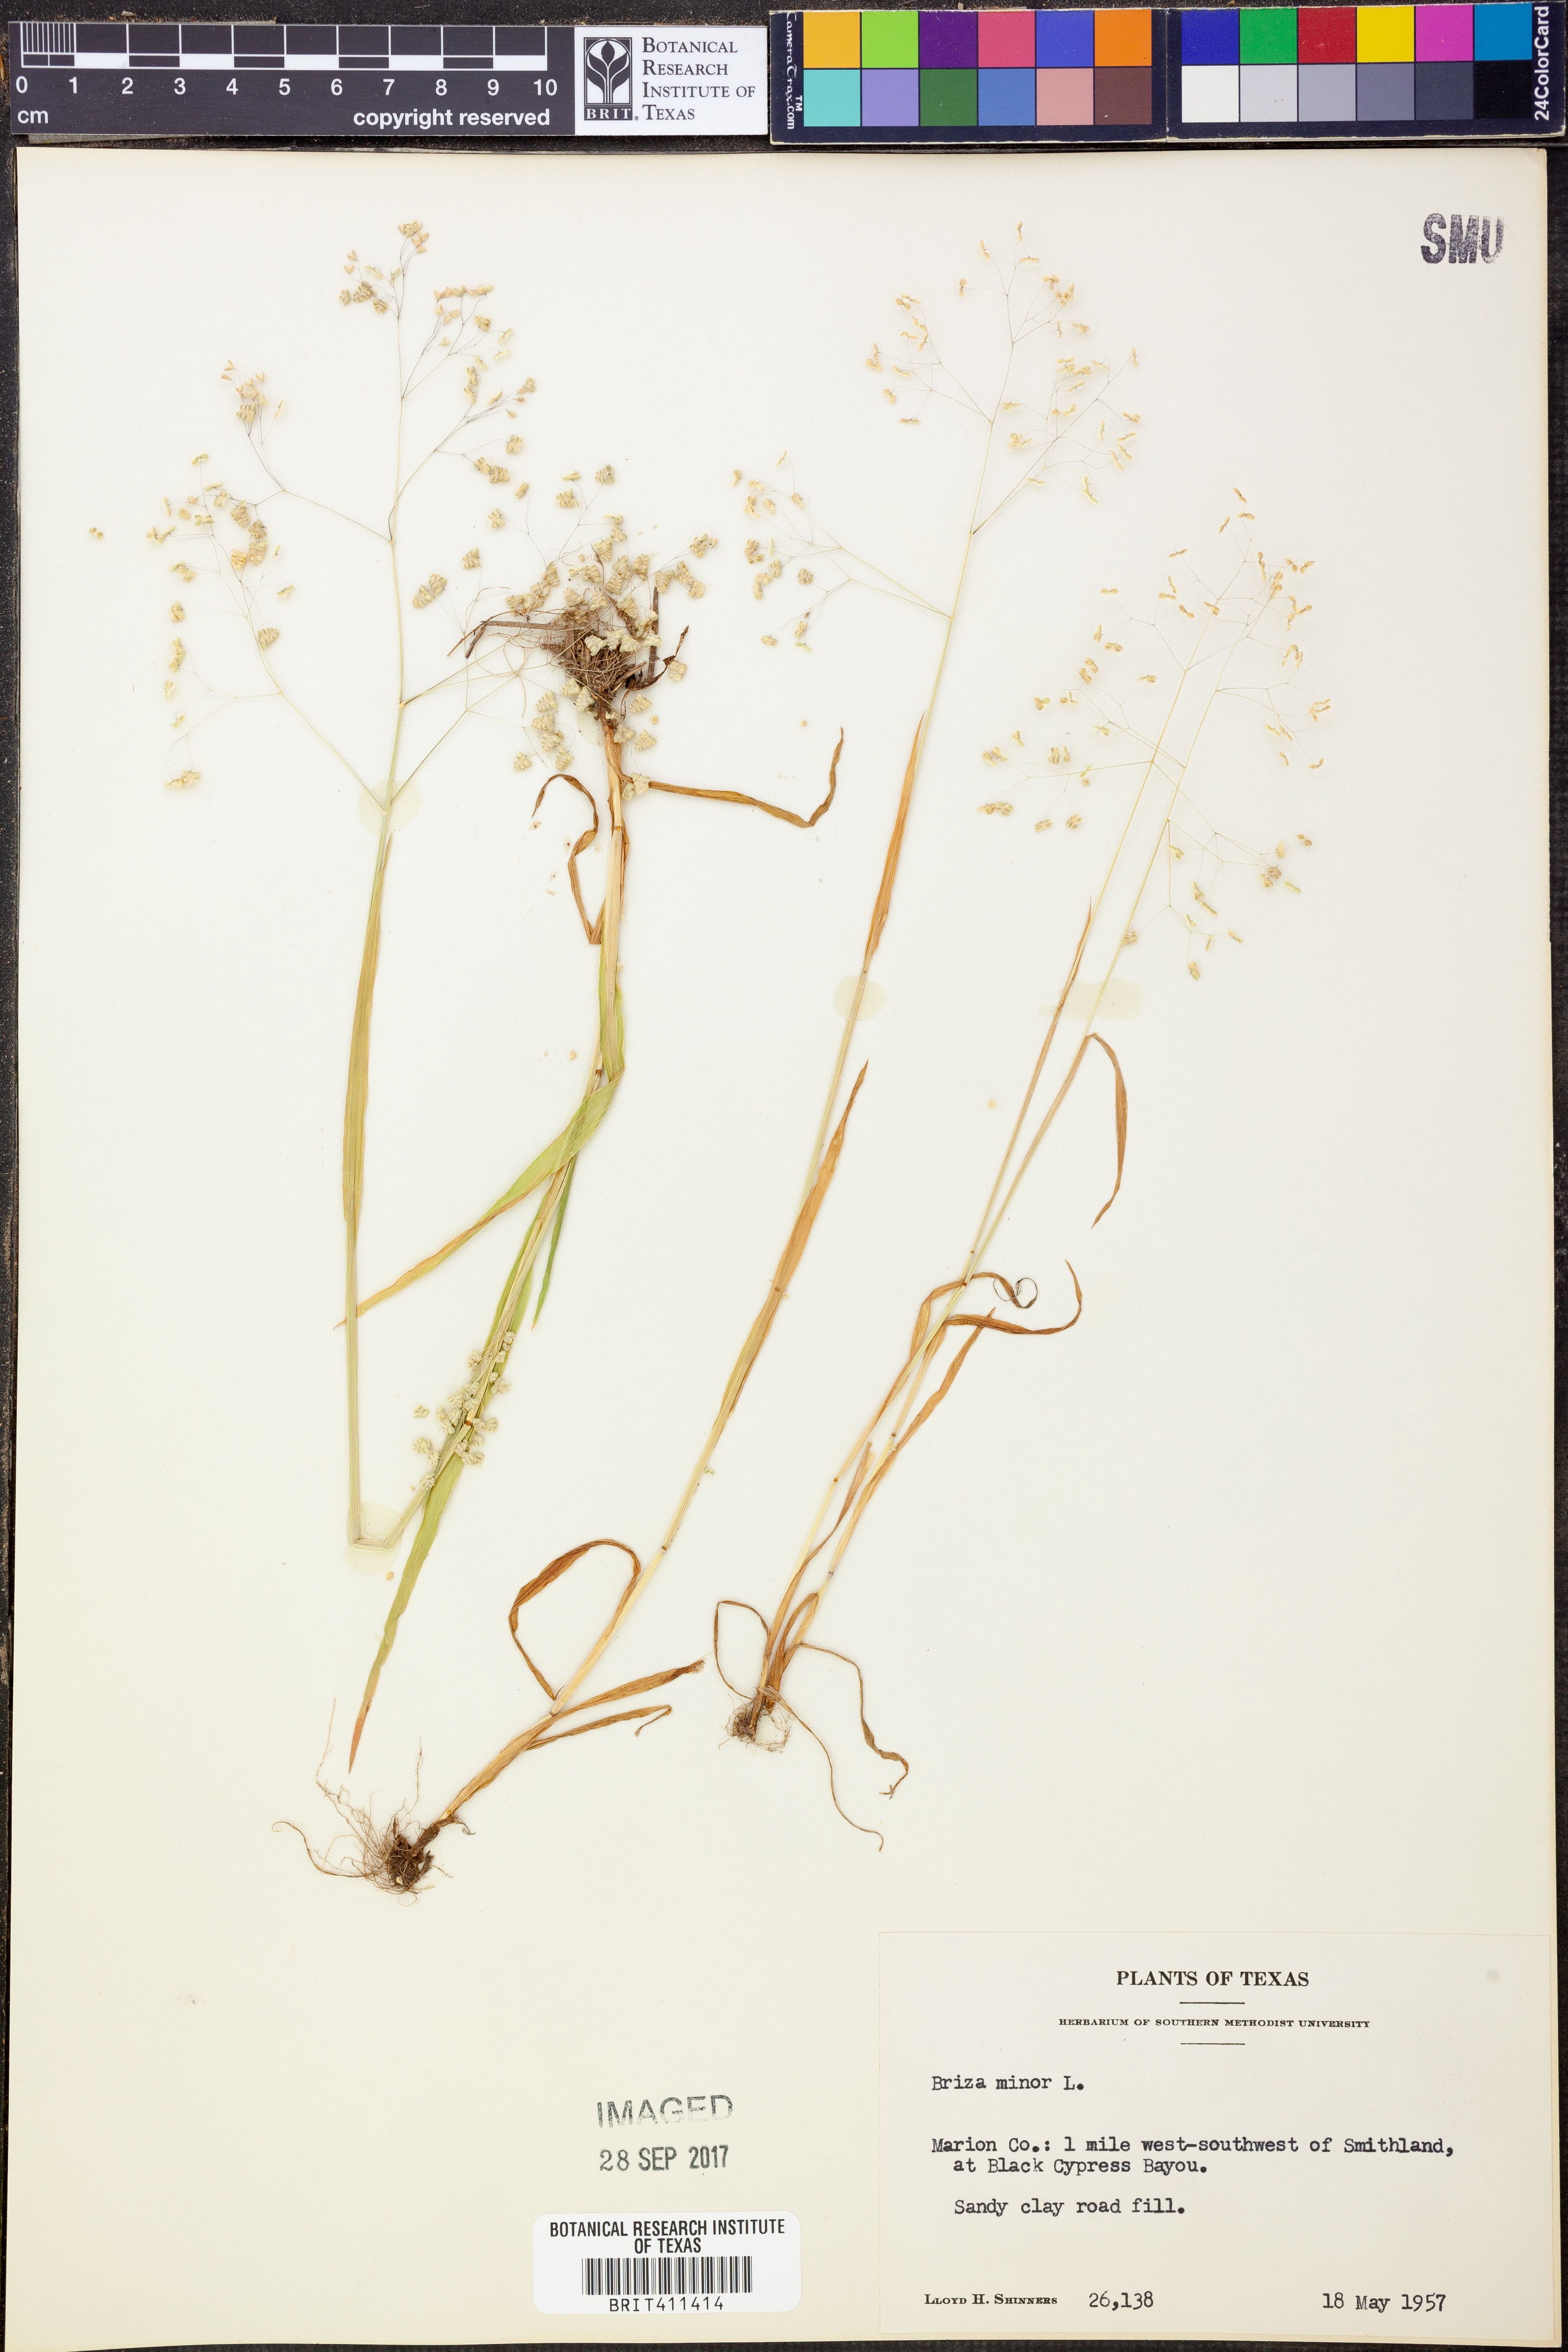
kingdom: Plantae
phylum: Tracheophyta
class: Liliopsida
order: Poales
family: Poaceae
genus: Briza
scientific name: Briza minor
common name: Lesser quaking-grass
